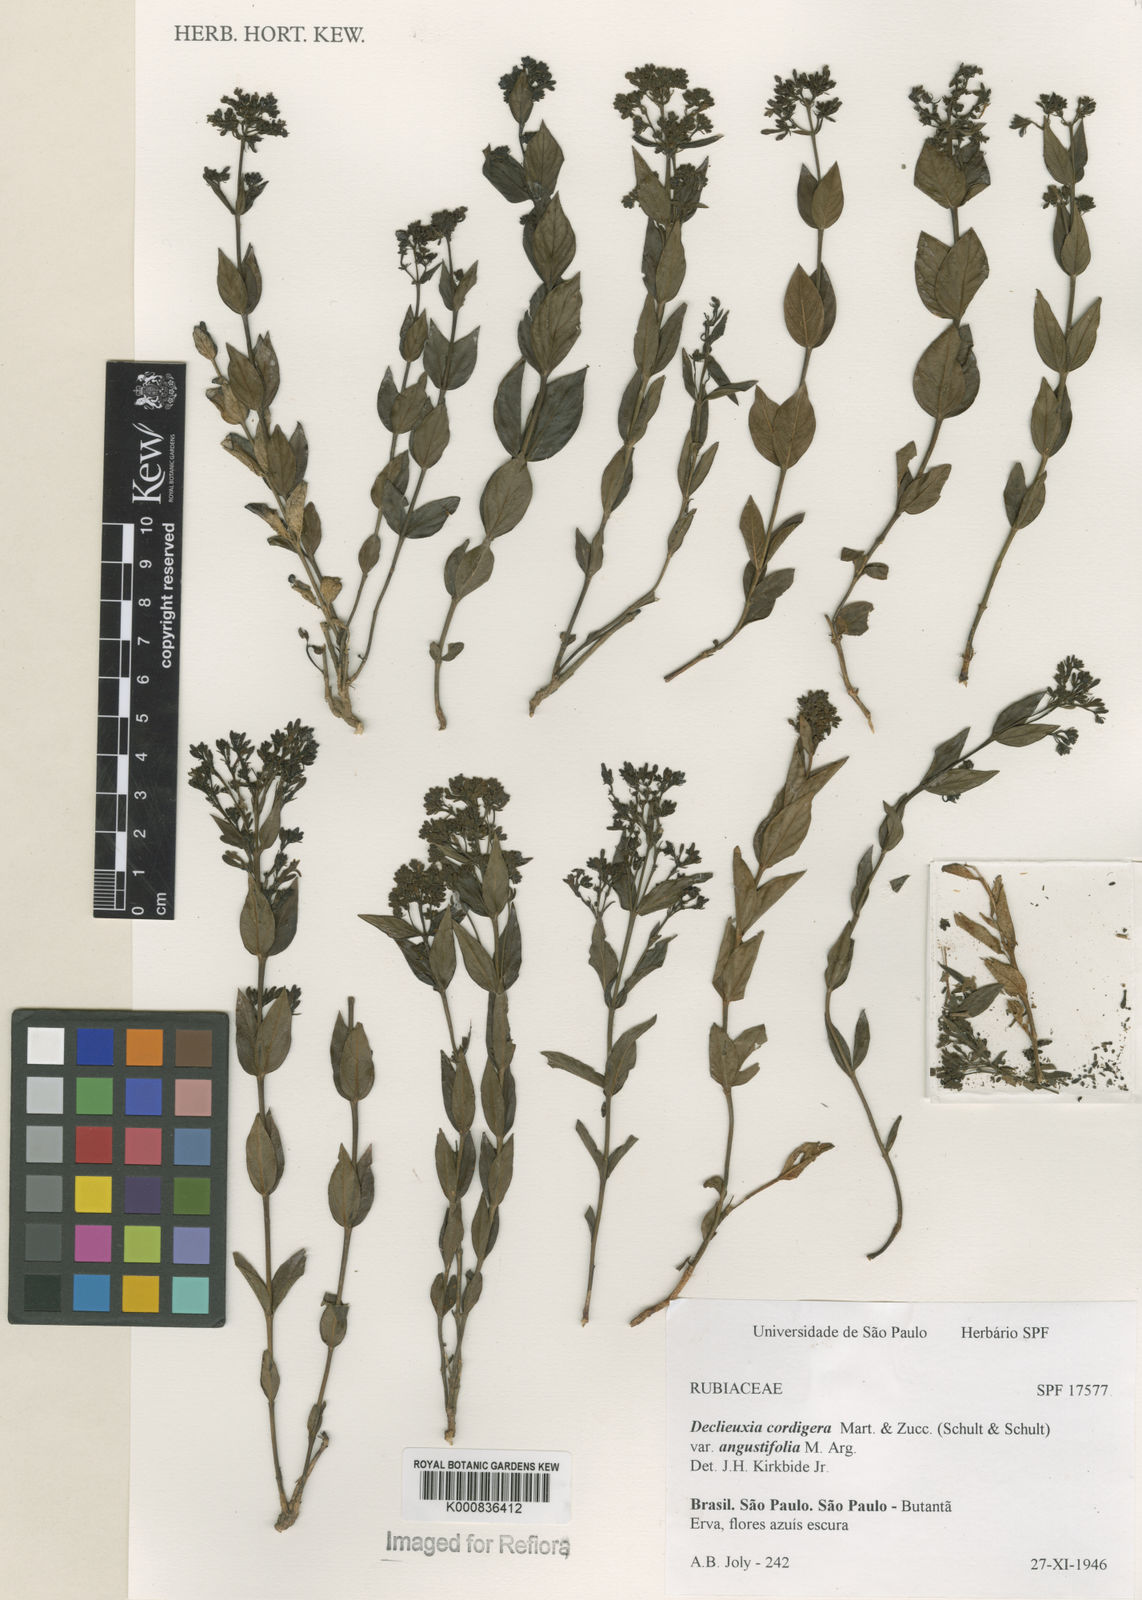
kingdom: Plantae
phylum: Tracheophyta
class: Magnoliopsida
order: Gentianales
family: Rubiaceae
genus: Declieuxia
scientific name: Declieuxia
